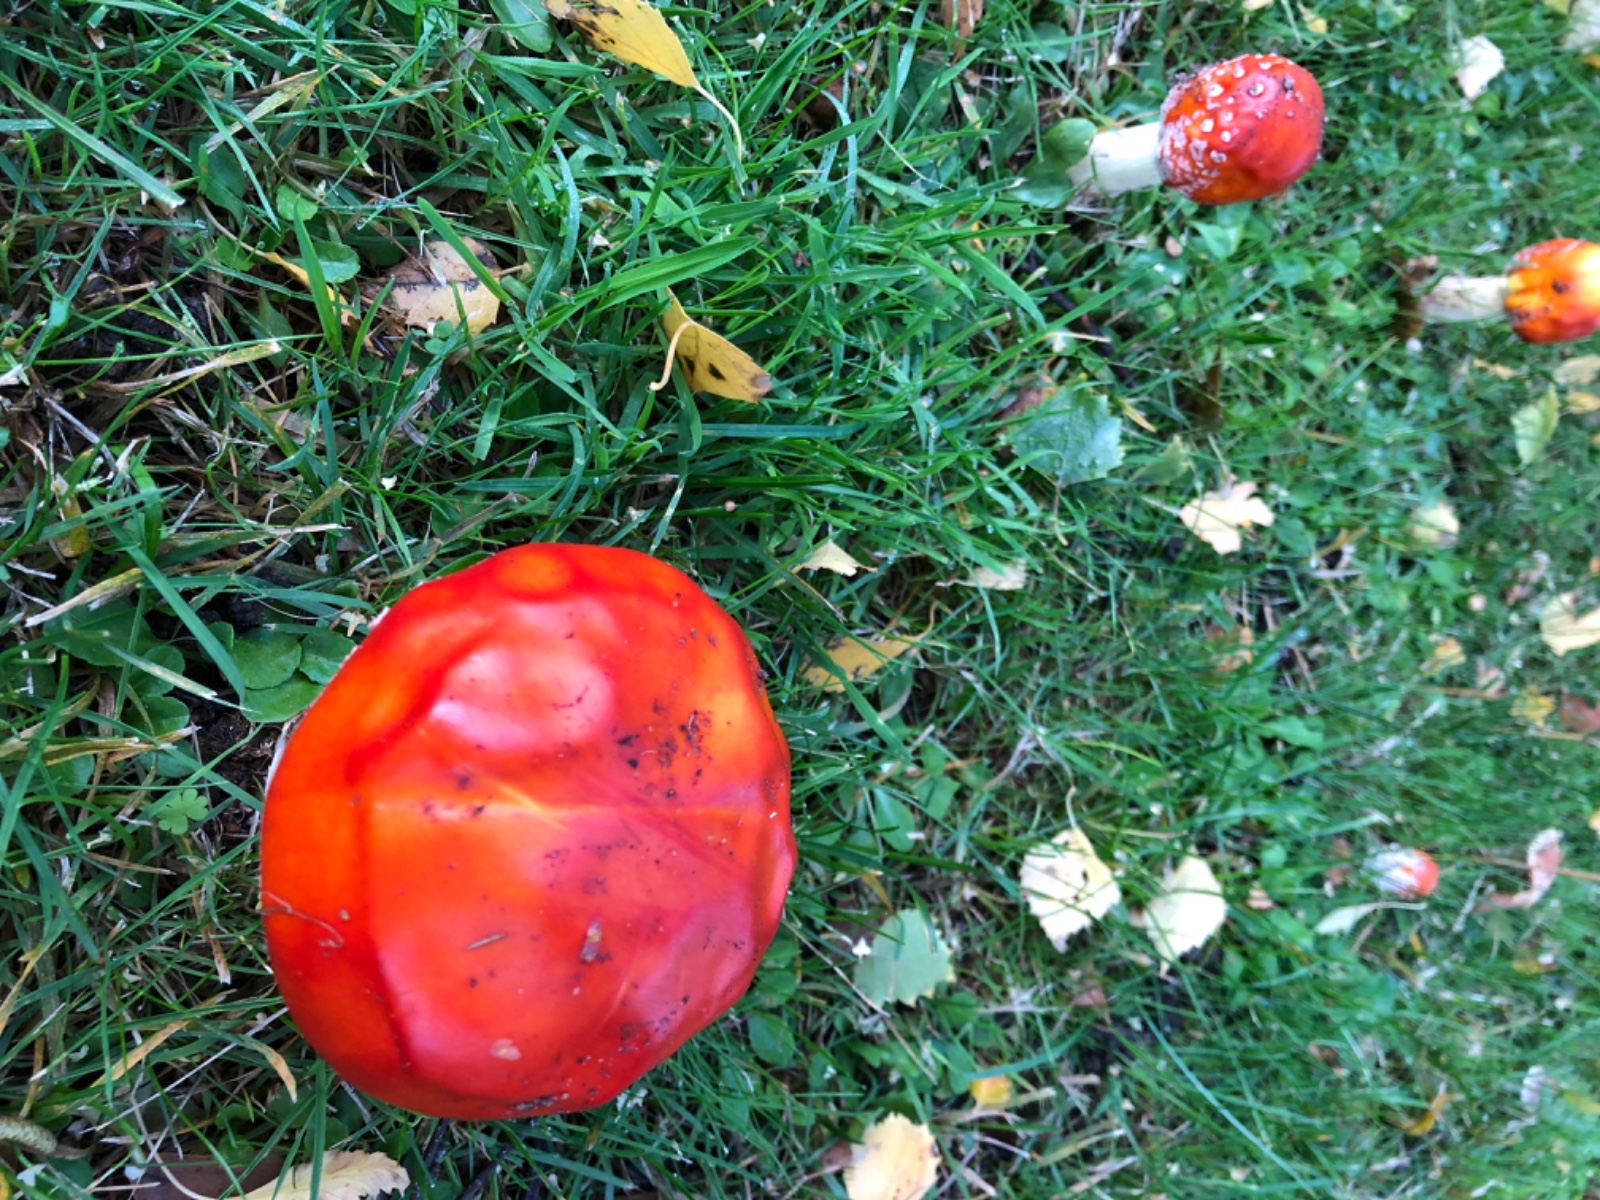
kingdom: Fungi
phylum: Basidiomycota
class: Agaricomycetes
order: Agaricales
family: Amanitaceae
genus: Amanita
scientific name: Amanita muscaria
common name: rød fluesvamp
